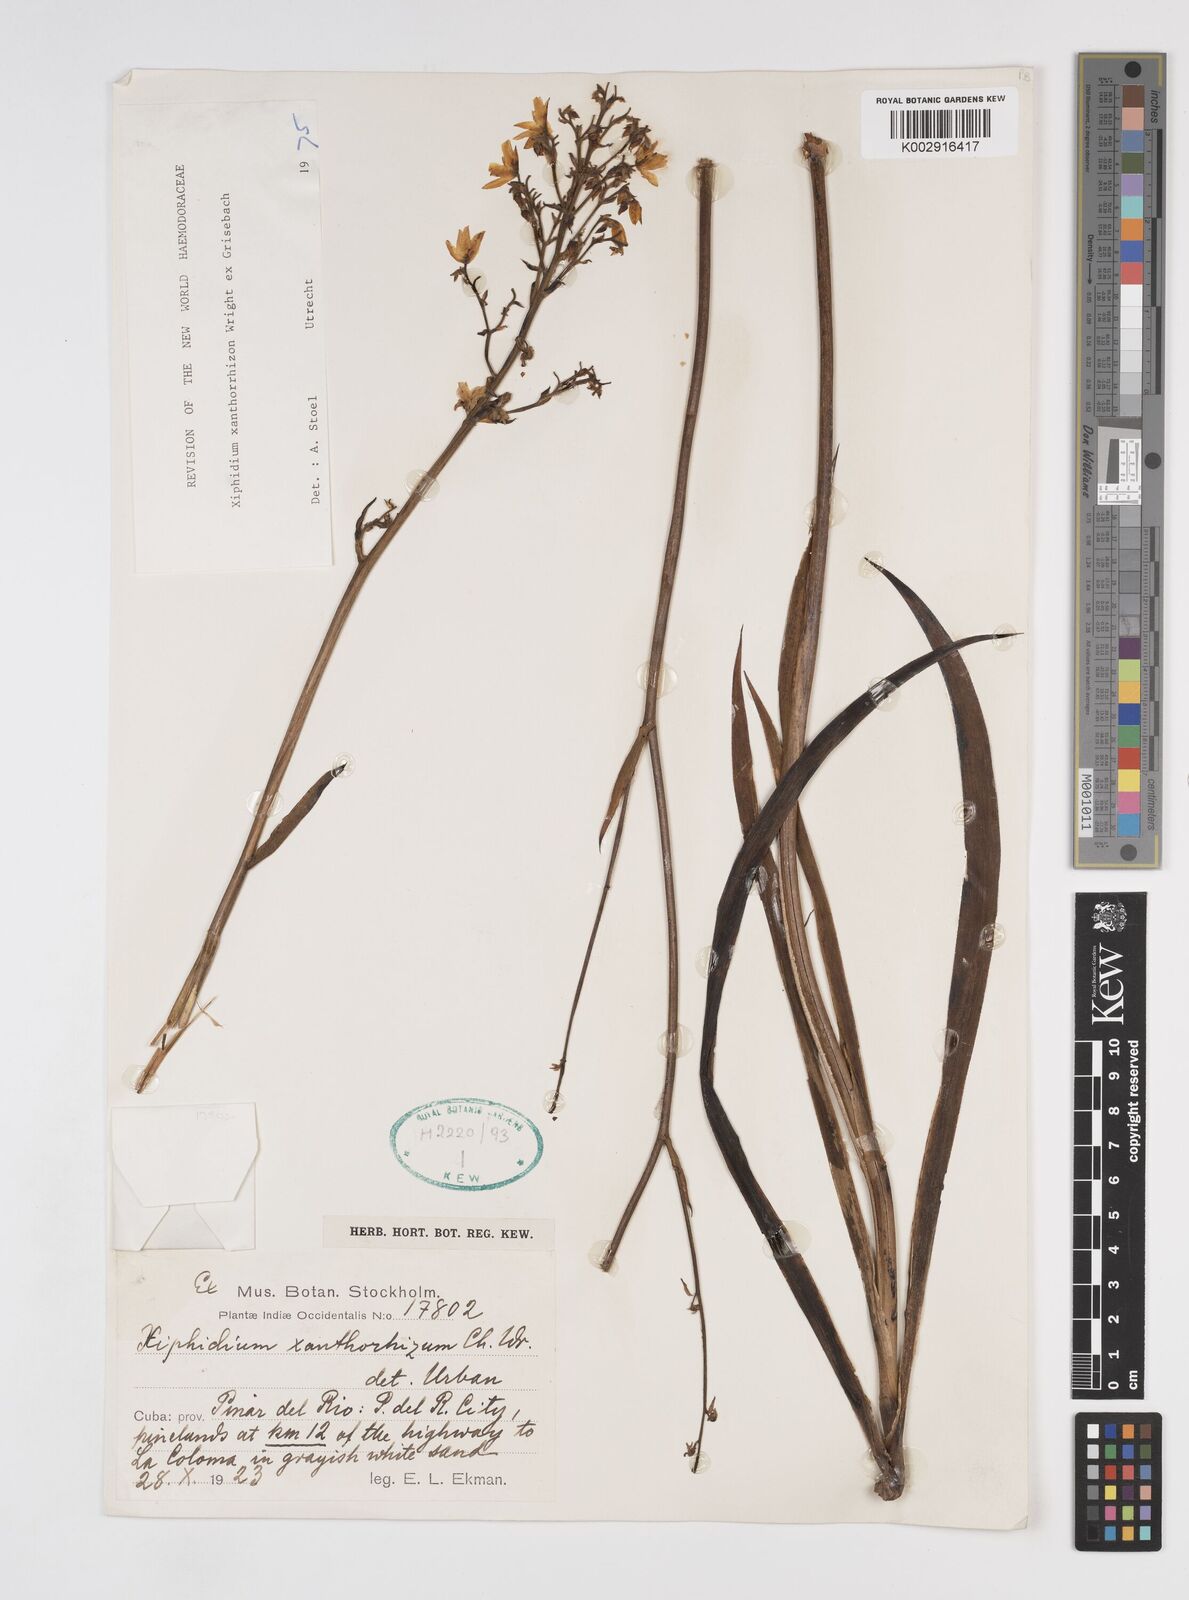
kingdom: Plantae
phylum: Tracheophyta
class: Liliopsida
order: Commelinales
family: Haemodoraceae
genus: Cubanicula
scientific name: Cubanicula xanthorrhizos
